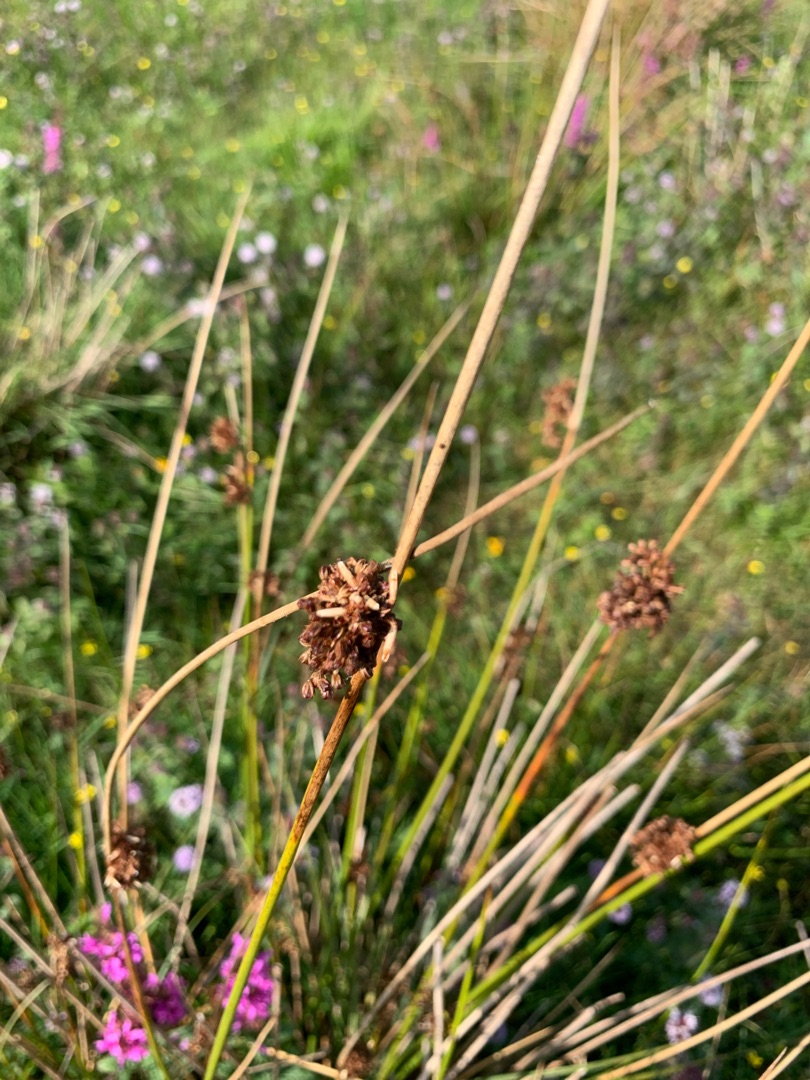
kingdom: Plantae
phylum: Tracheophyta
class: Liliopsida
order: Poales
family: Juncaceae
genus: Juncus
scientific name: Juncus effusus
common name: Lyse-siv
